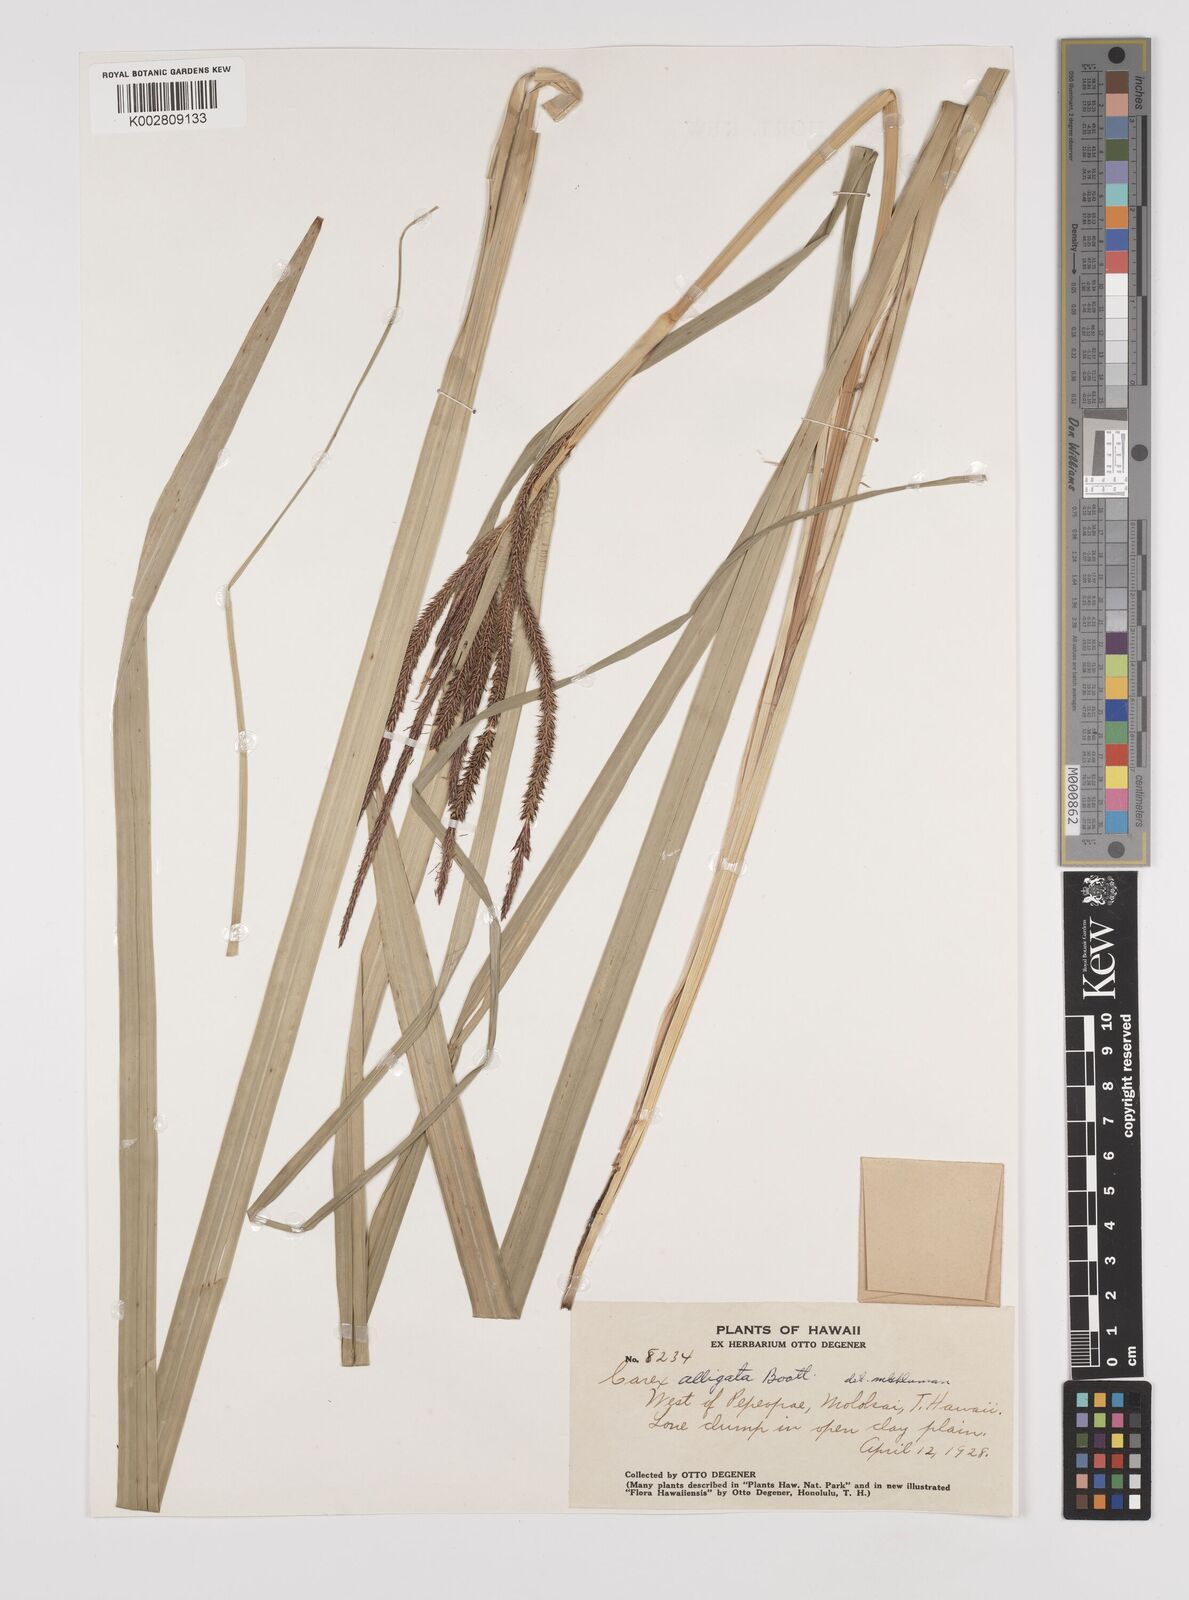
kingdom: Plantae
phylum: Tracheophyta
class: Liliopsida
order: Poales
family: Cyperaceae
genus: Carex
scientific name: Carex alligata
